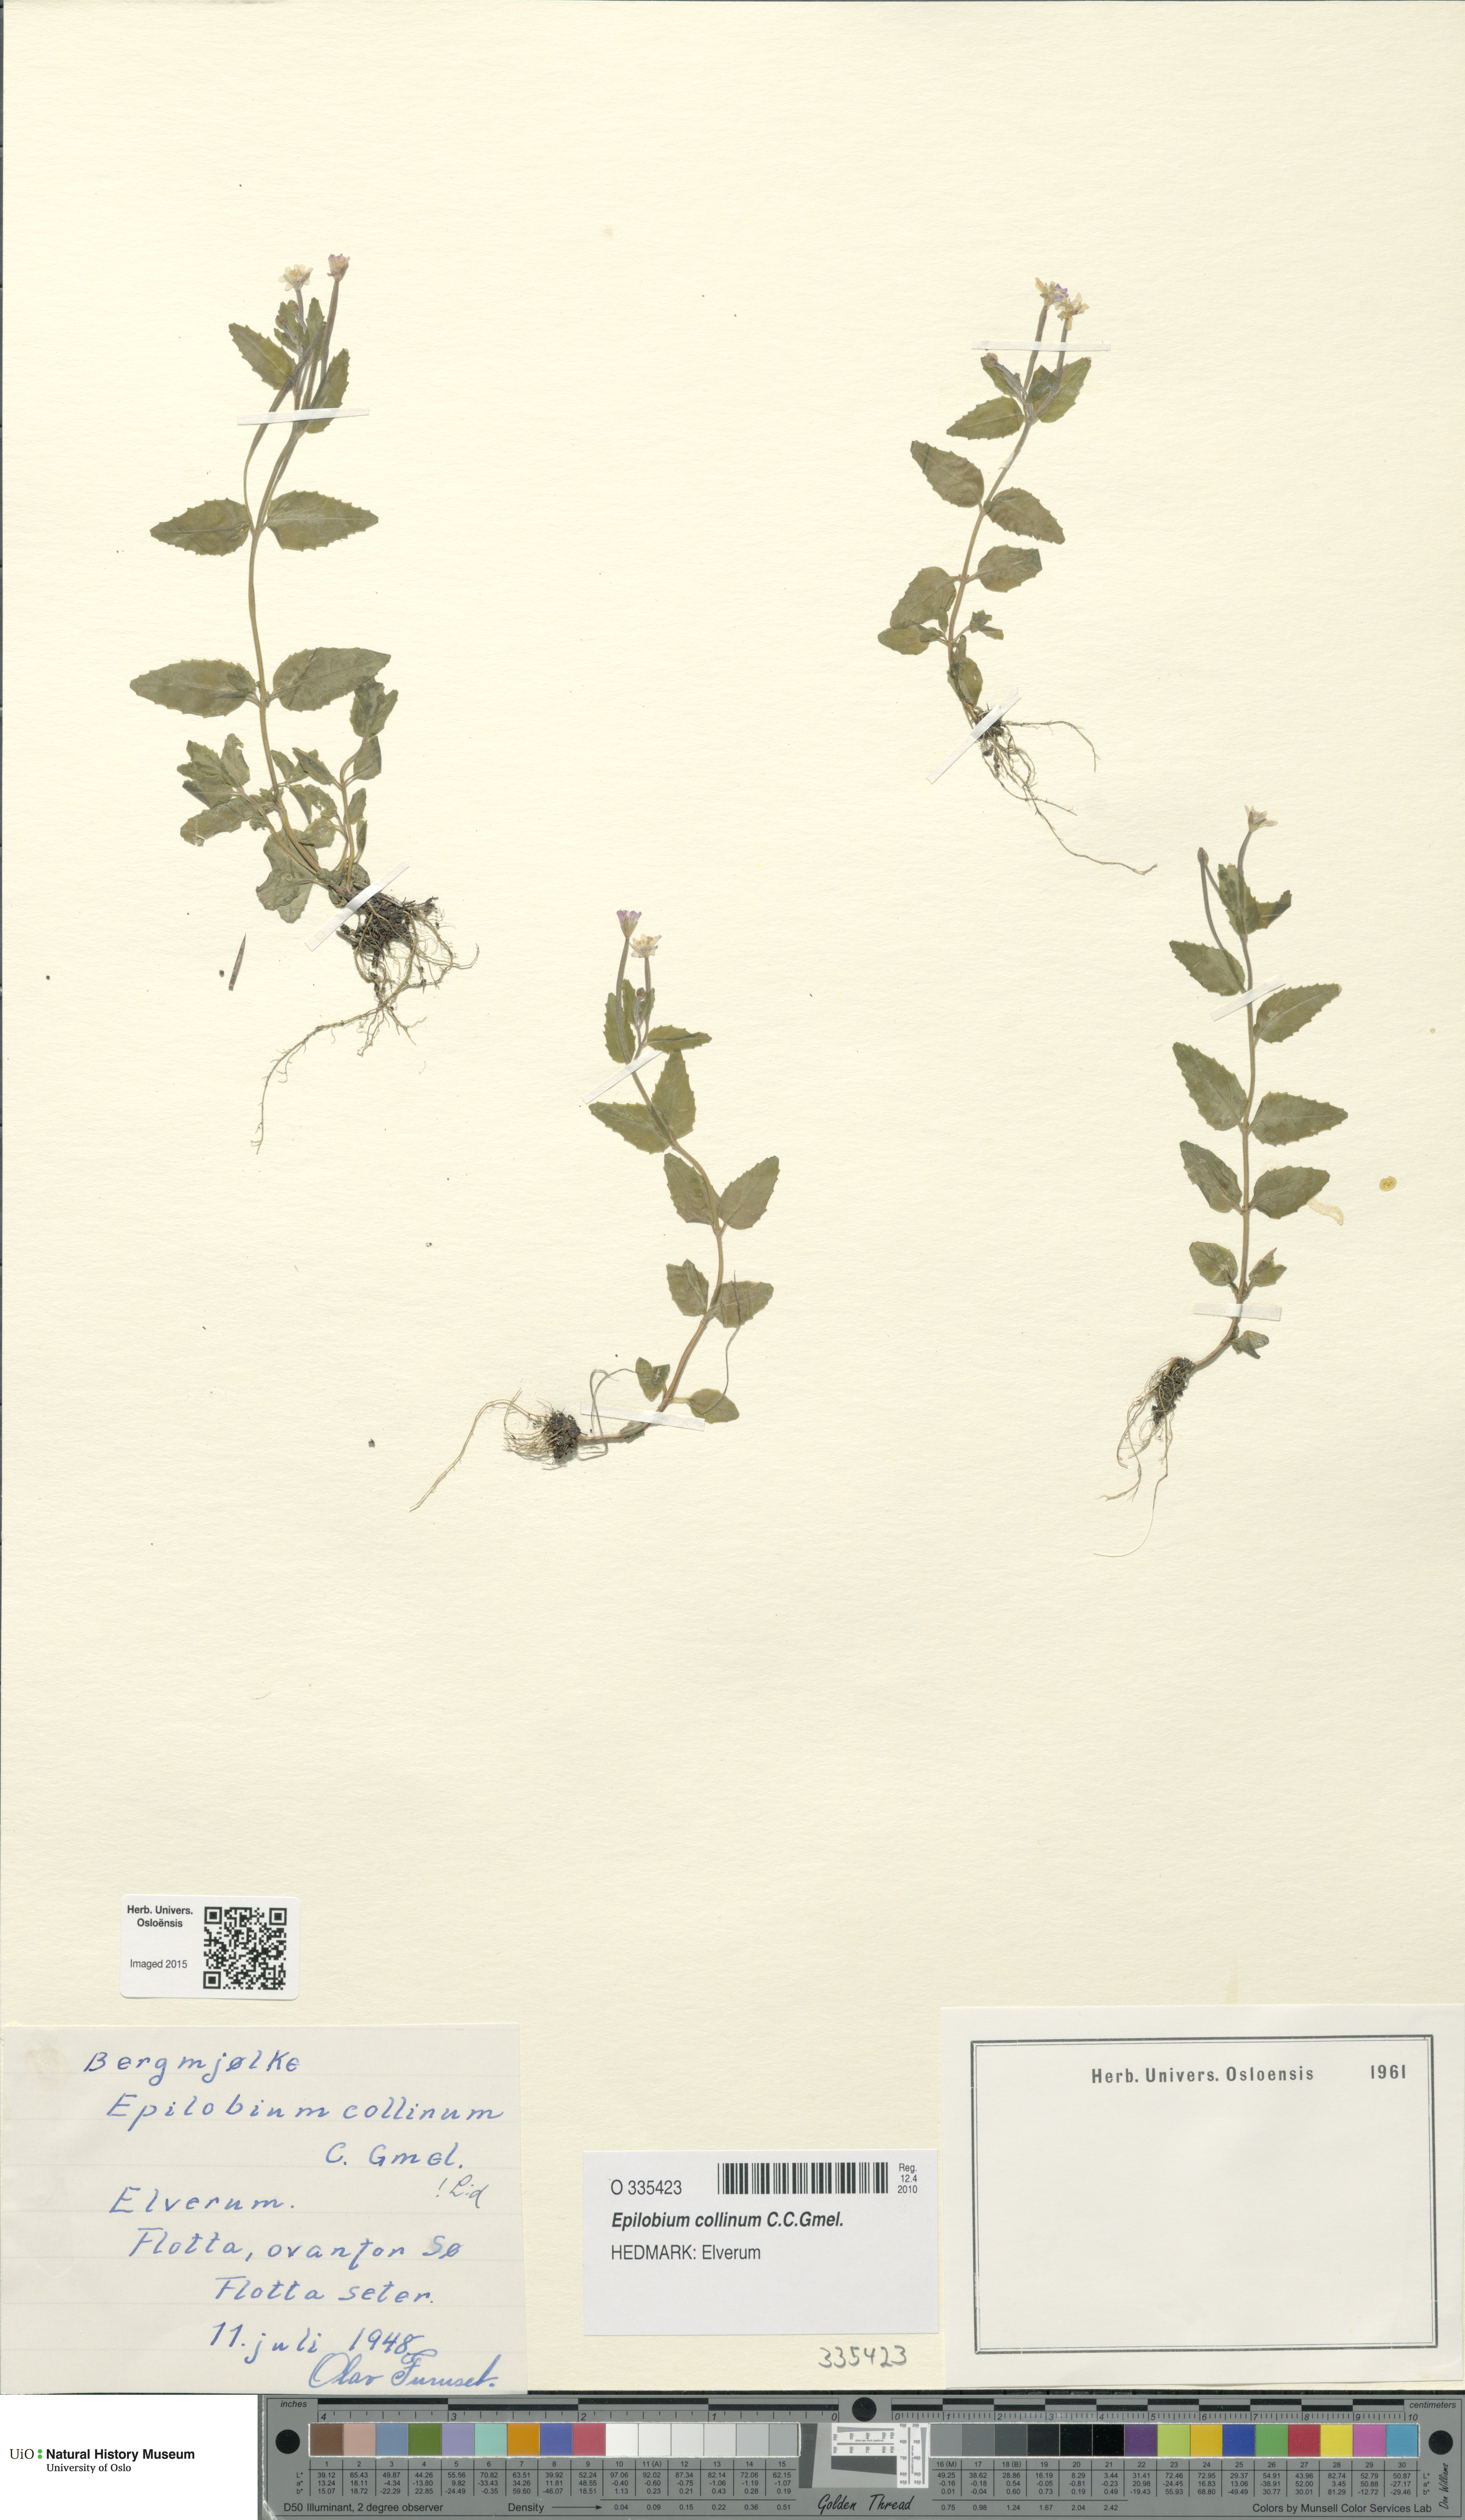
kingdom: Plantae
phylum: Tracheophyta
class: Magnoliopsida
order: Myrtales
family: Onagraceae
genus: Epilobium
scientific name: Epilobium collinum
